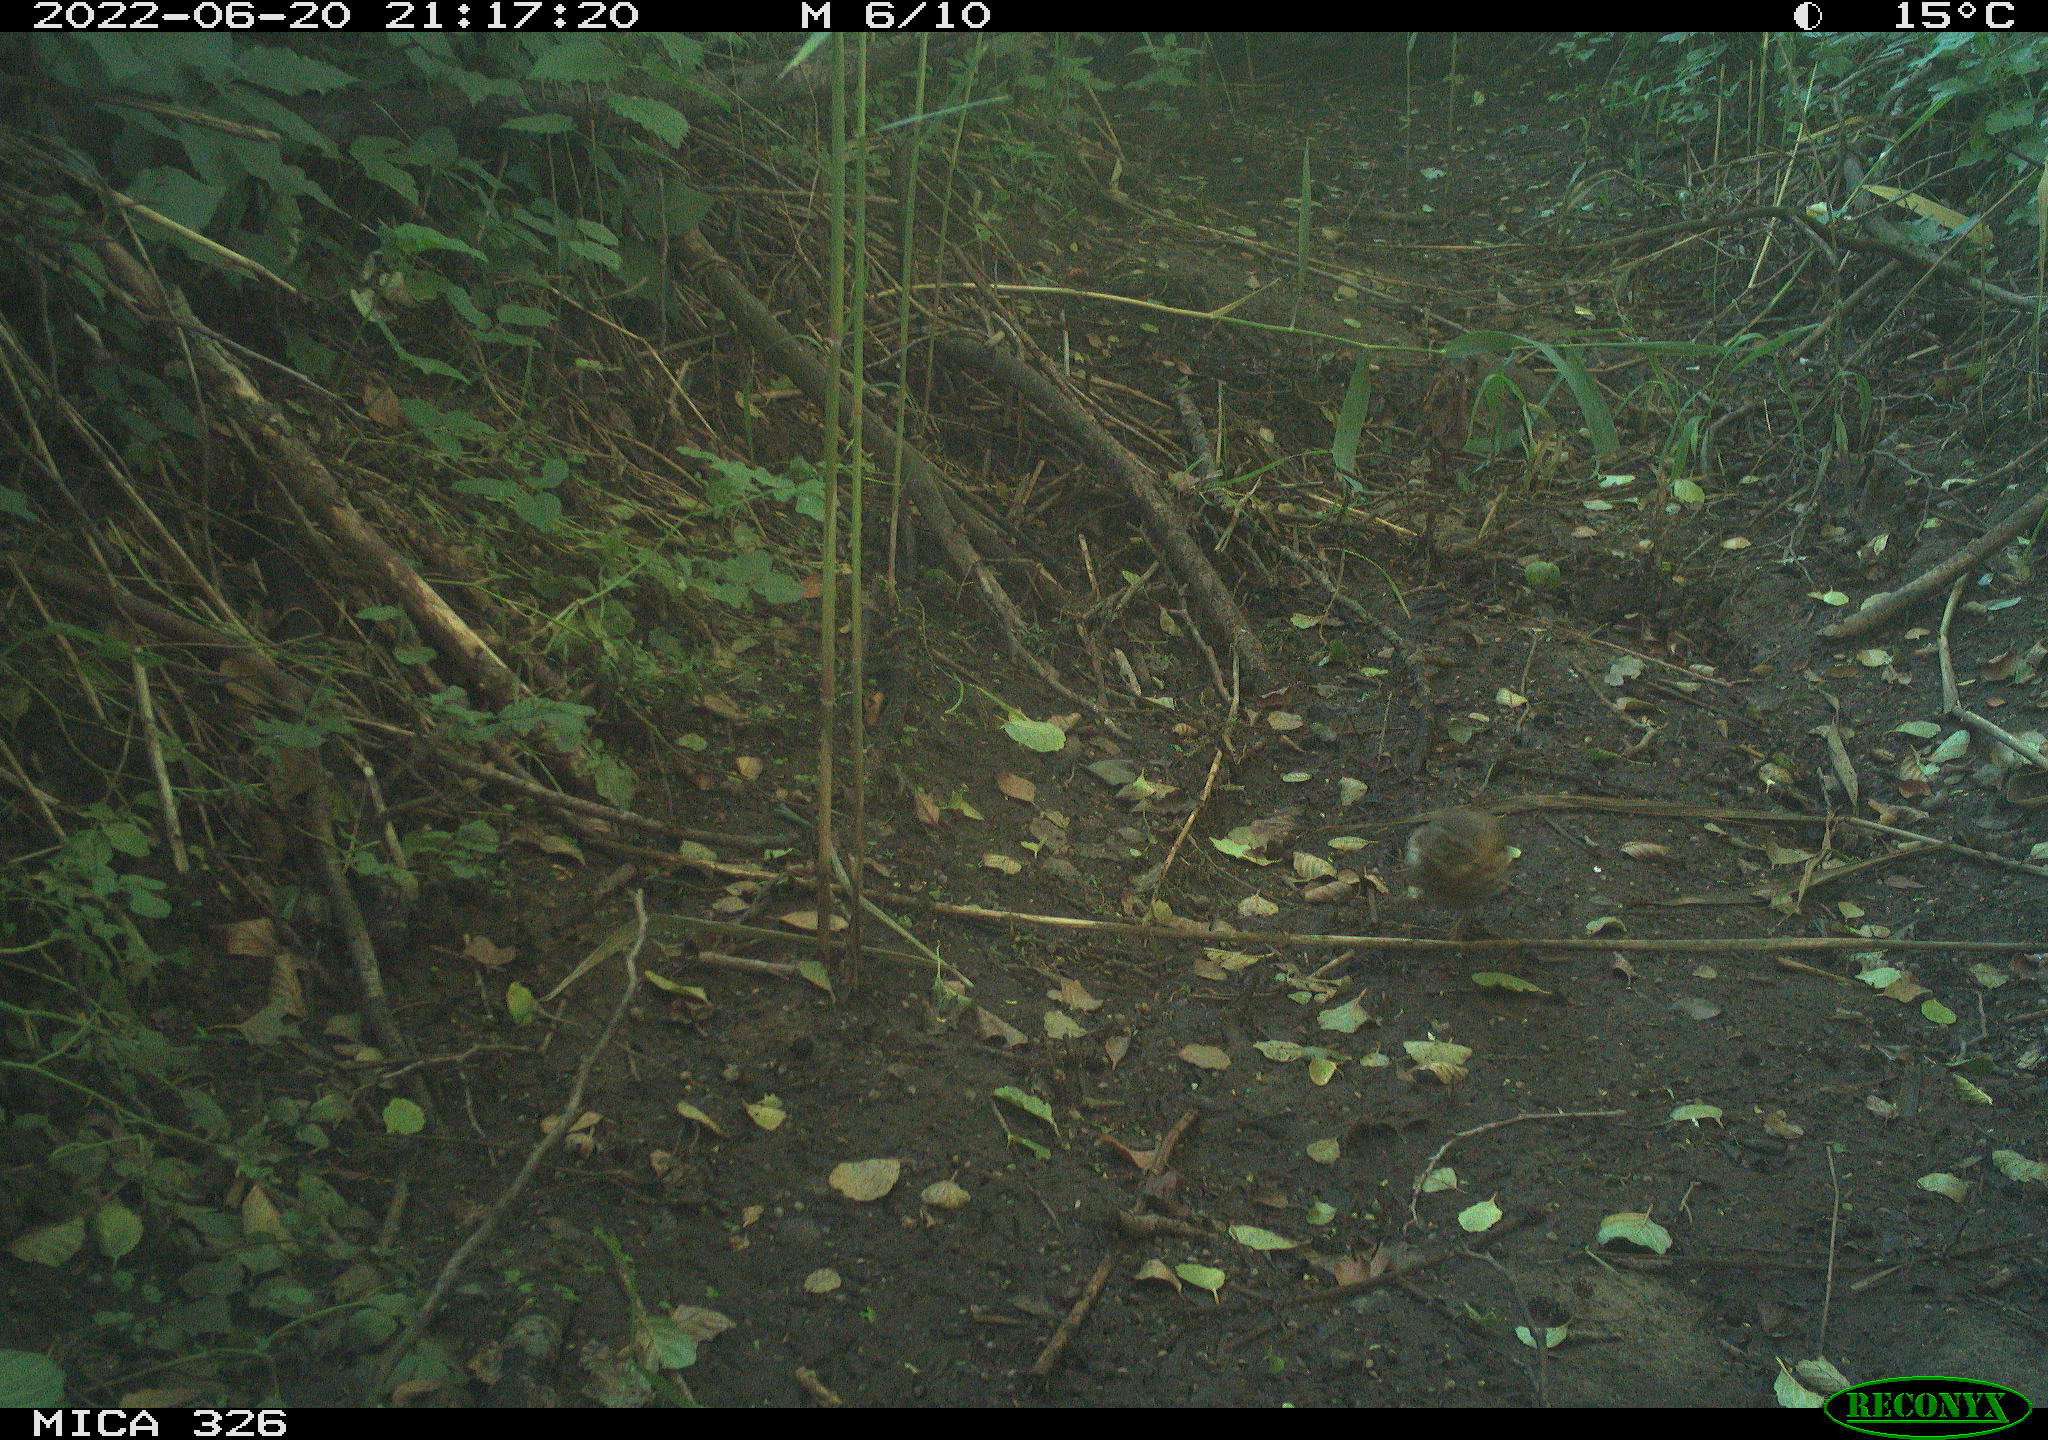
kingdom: Animalia
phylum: Chordata
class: Aves
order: Passeriformes
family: Turdidae
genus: Turdus
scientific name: Turdus philomelos
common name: Song thrush
